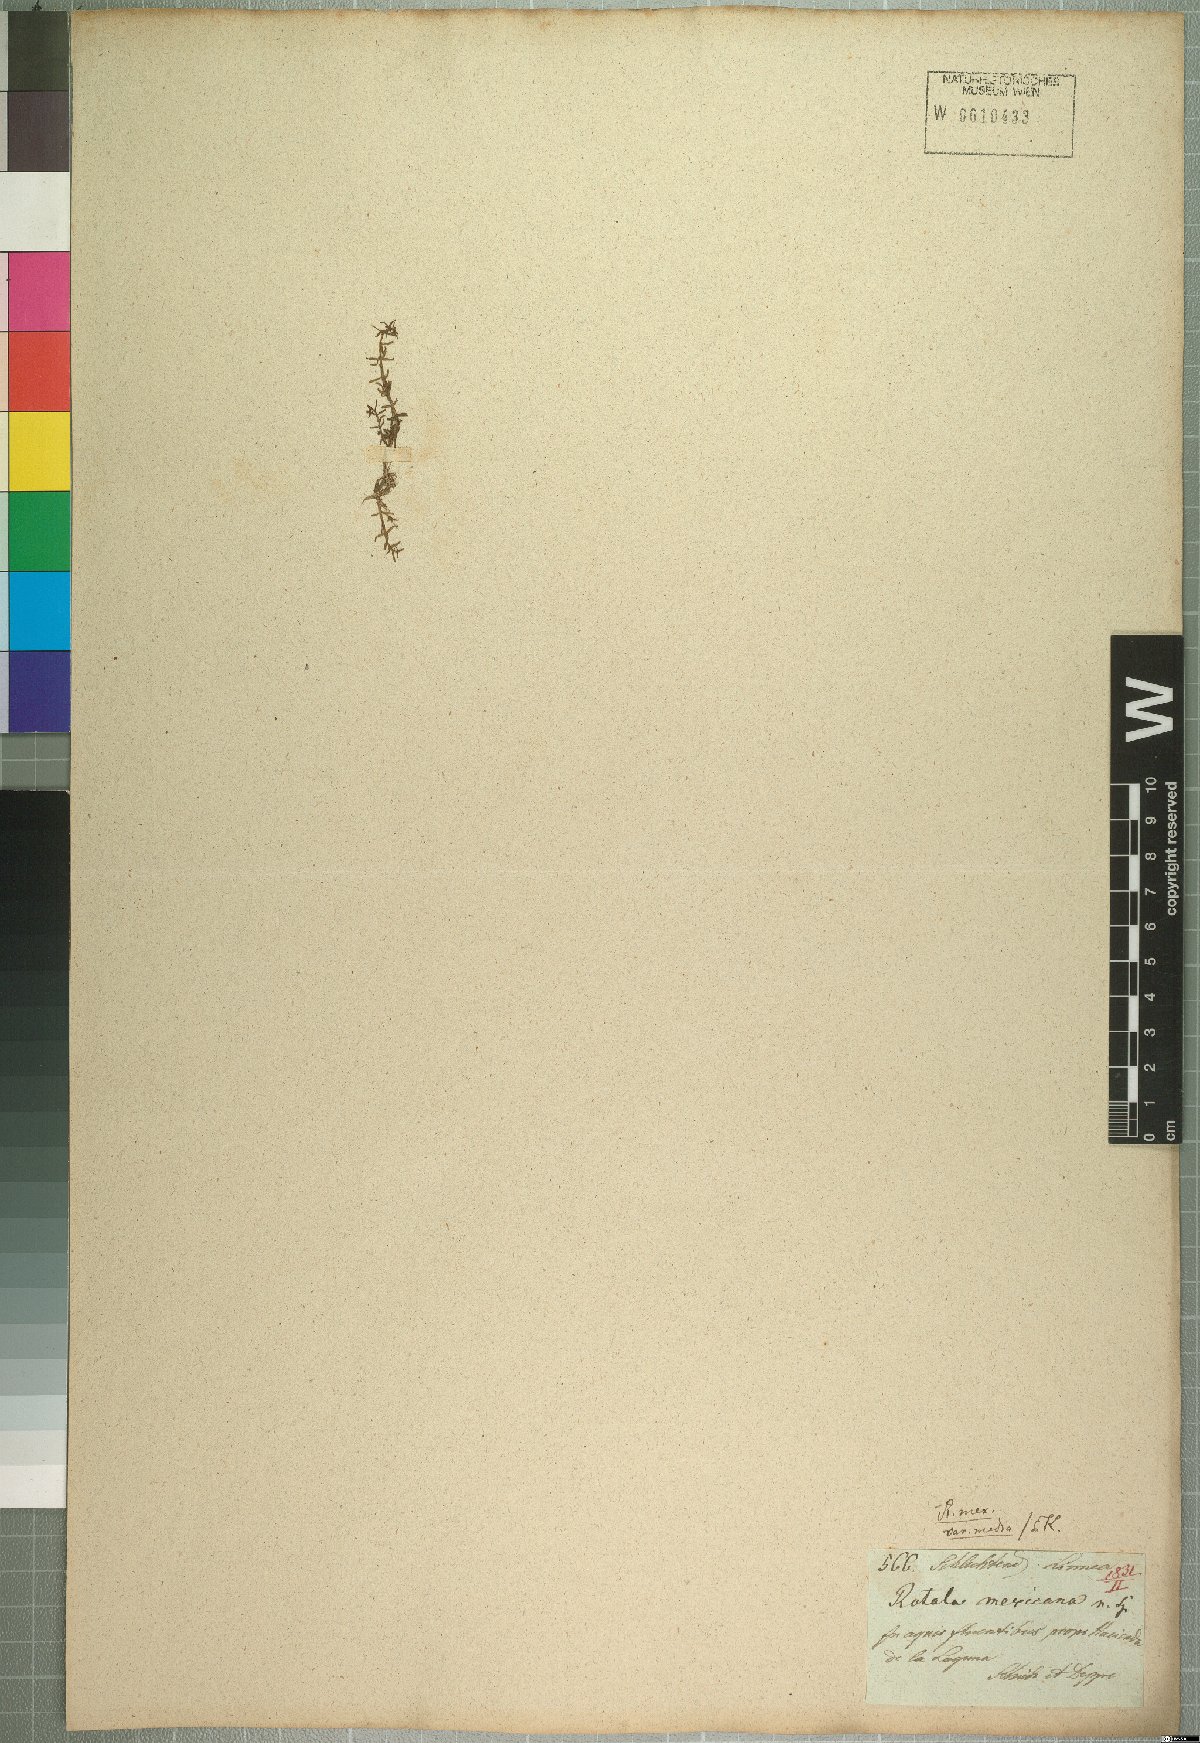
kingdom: Plantae
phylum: Tracheophyta
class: Magnoliopsida
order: Myrtales
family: Lythraceae
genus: Rotala
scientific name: Rotala mexicana
